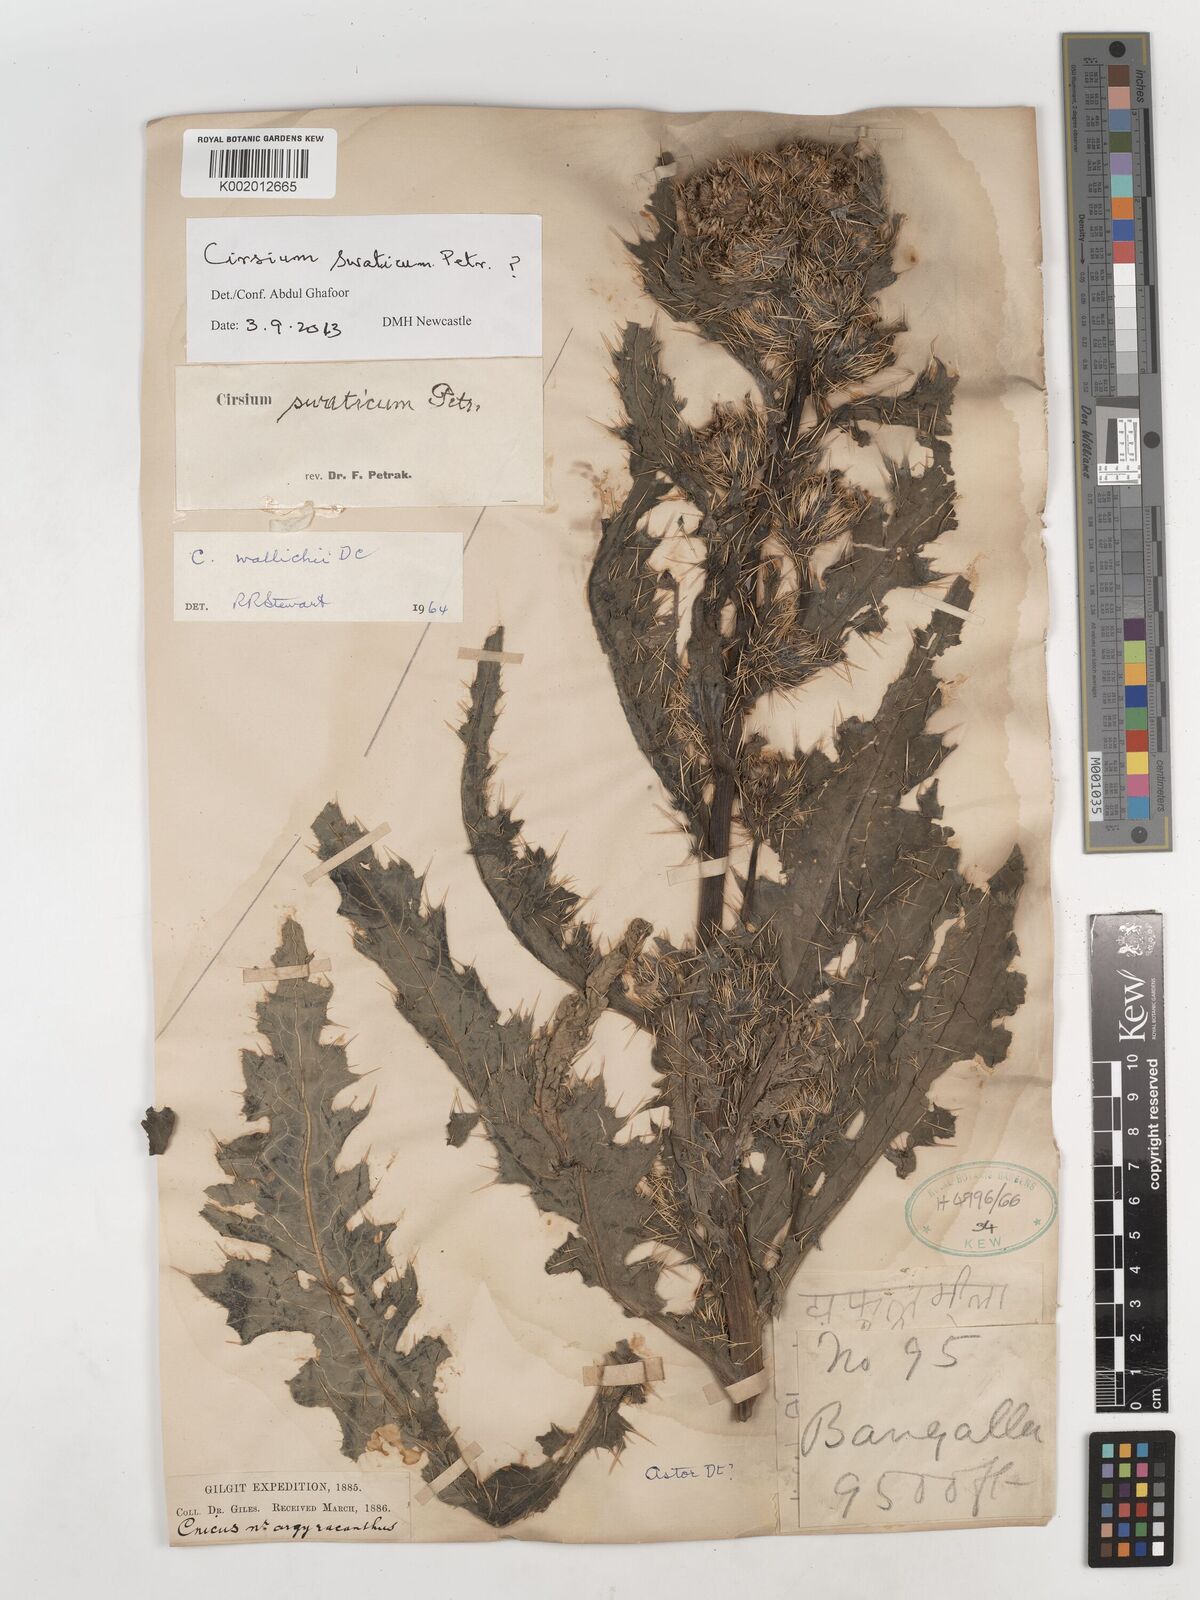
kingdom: Plantae
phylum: Tracheophyta
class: Magnoliopsida
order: Asterales
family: Asteraceae
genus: Cirsium
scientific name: Cirsium swaticum
